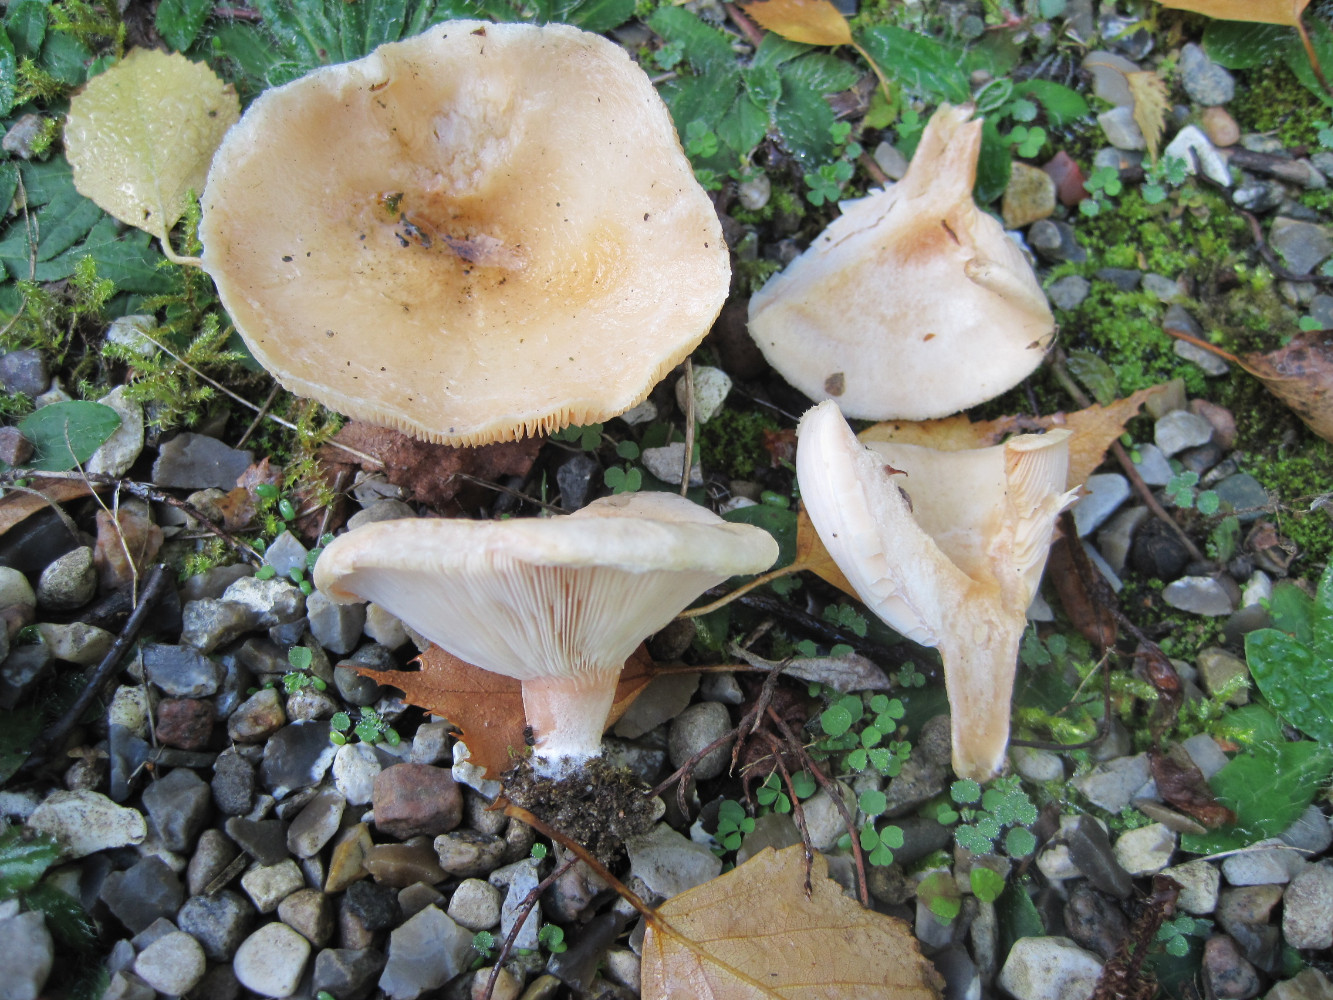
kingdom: Fungi
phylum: Basidiomycota
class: Agaricomycetes
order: Russulales
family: Russulaceae
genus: Lactarius
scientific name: Lactarius pubescens
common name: dunet mælkehat
